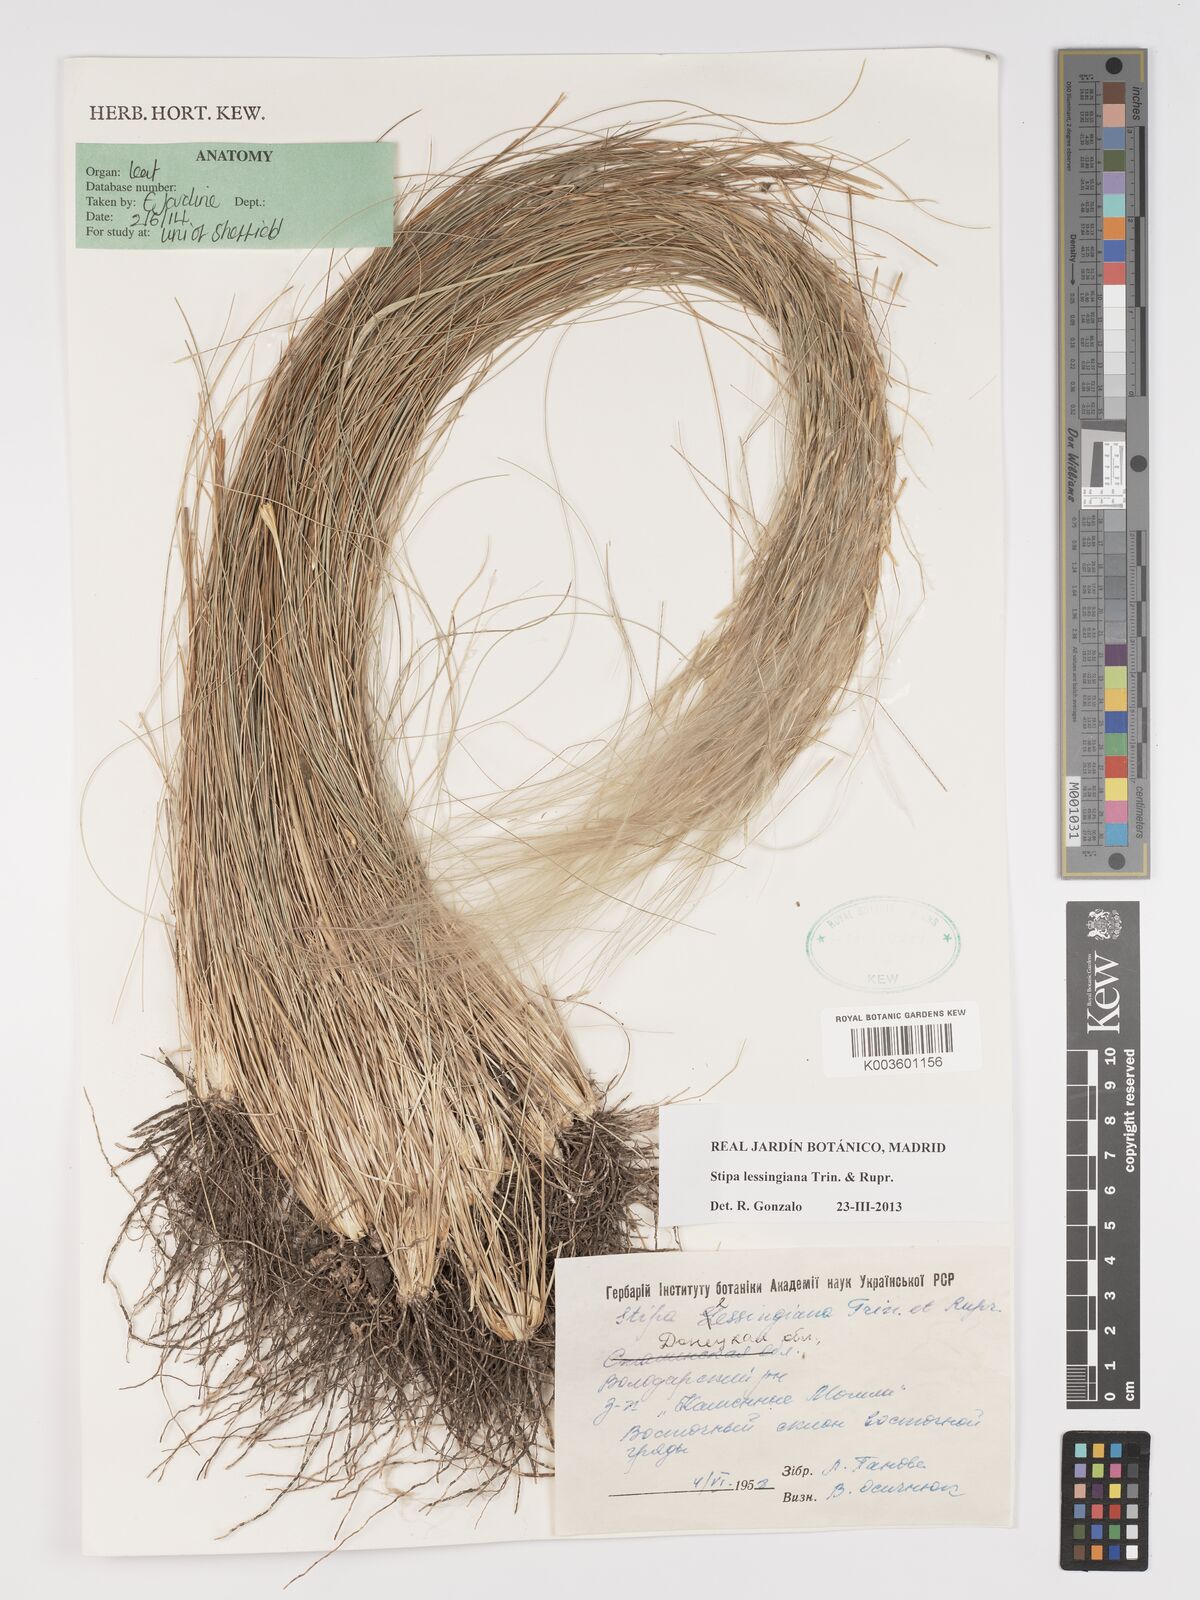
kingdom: Plantae
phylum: Tracheophyta
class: Liliopsida
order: Poales
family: Poaceae
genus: Stipa
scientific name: Stipa lessingiana
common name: Needle grass
